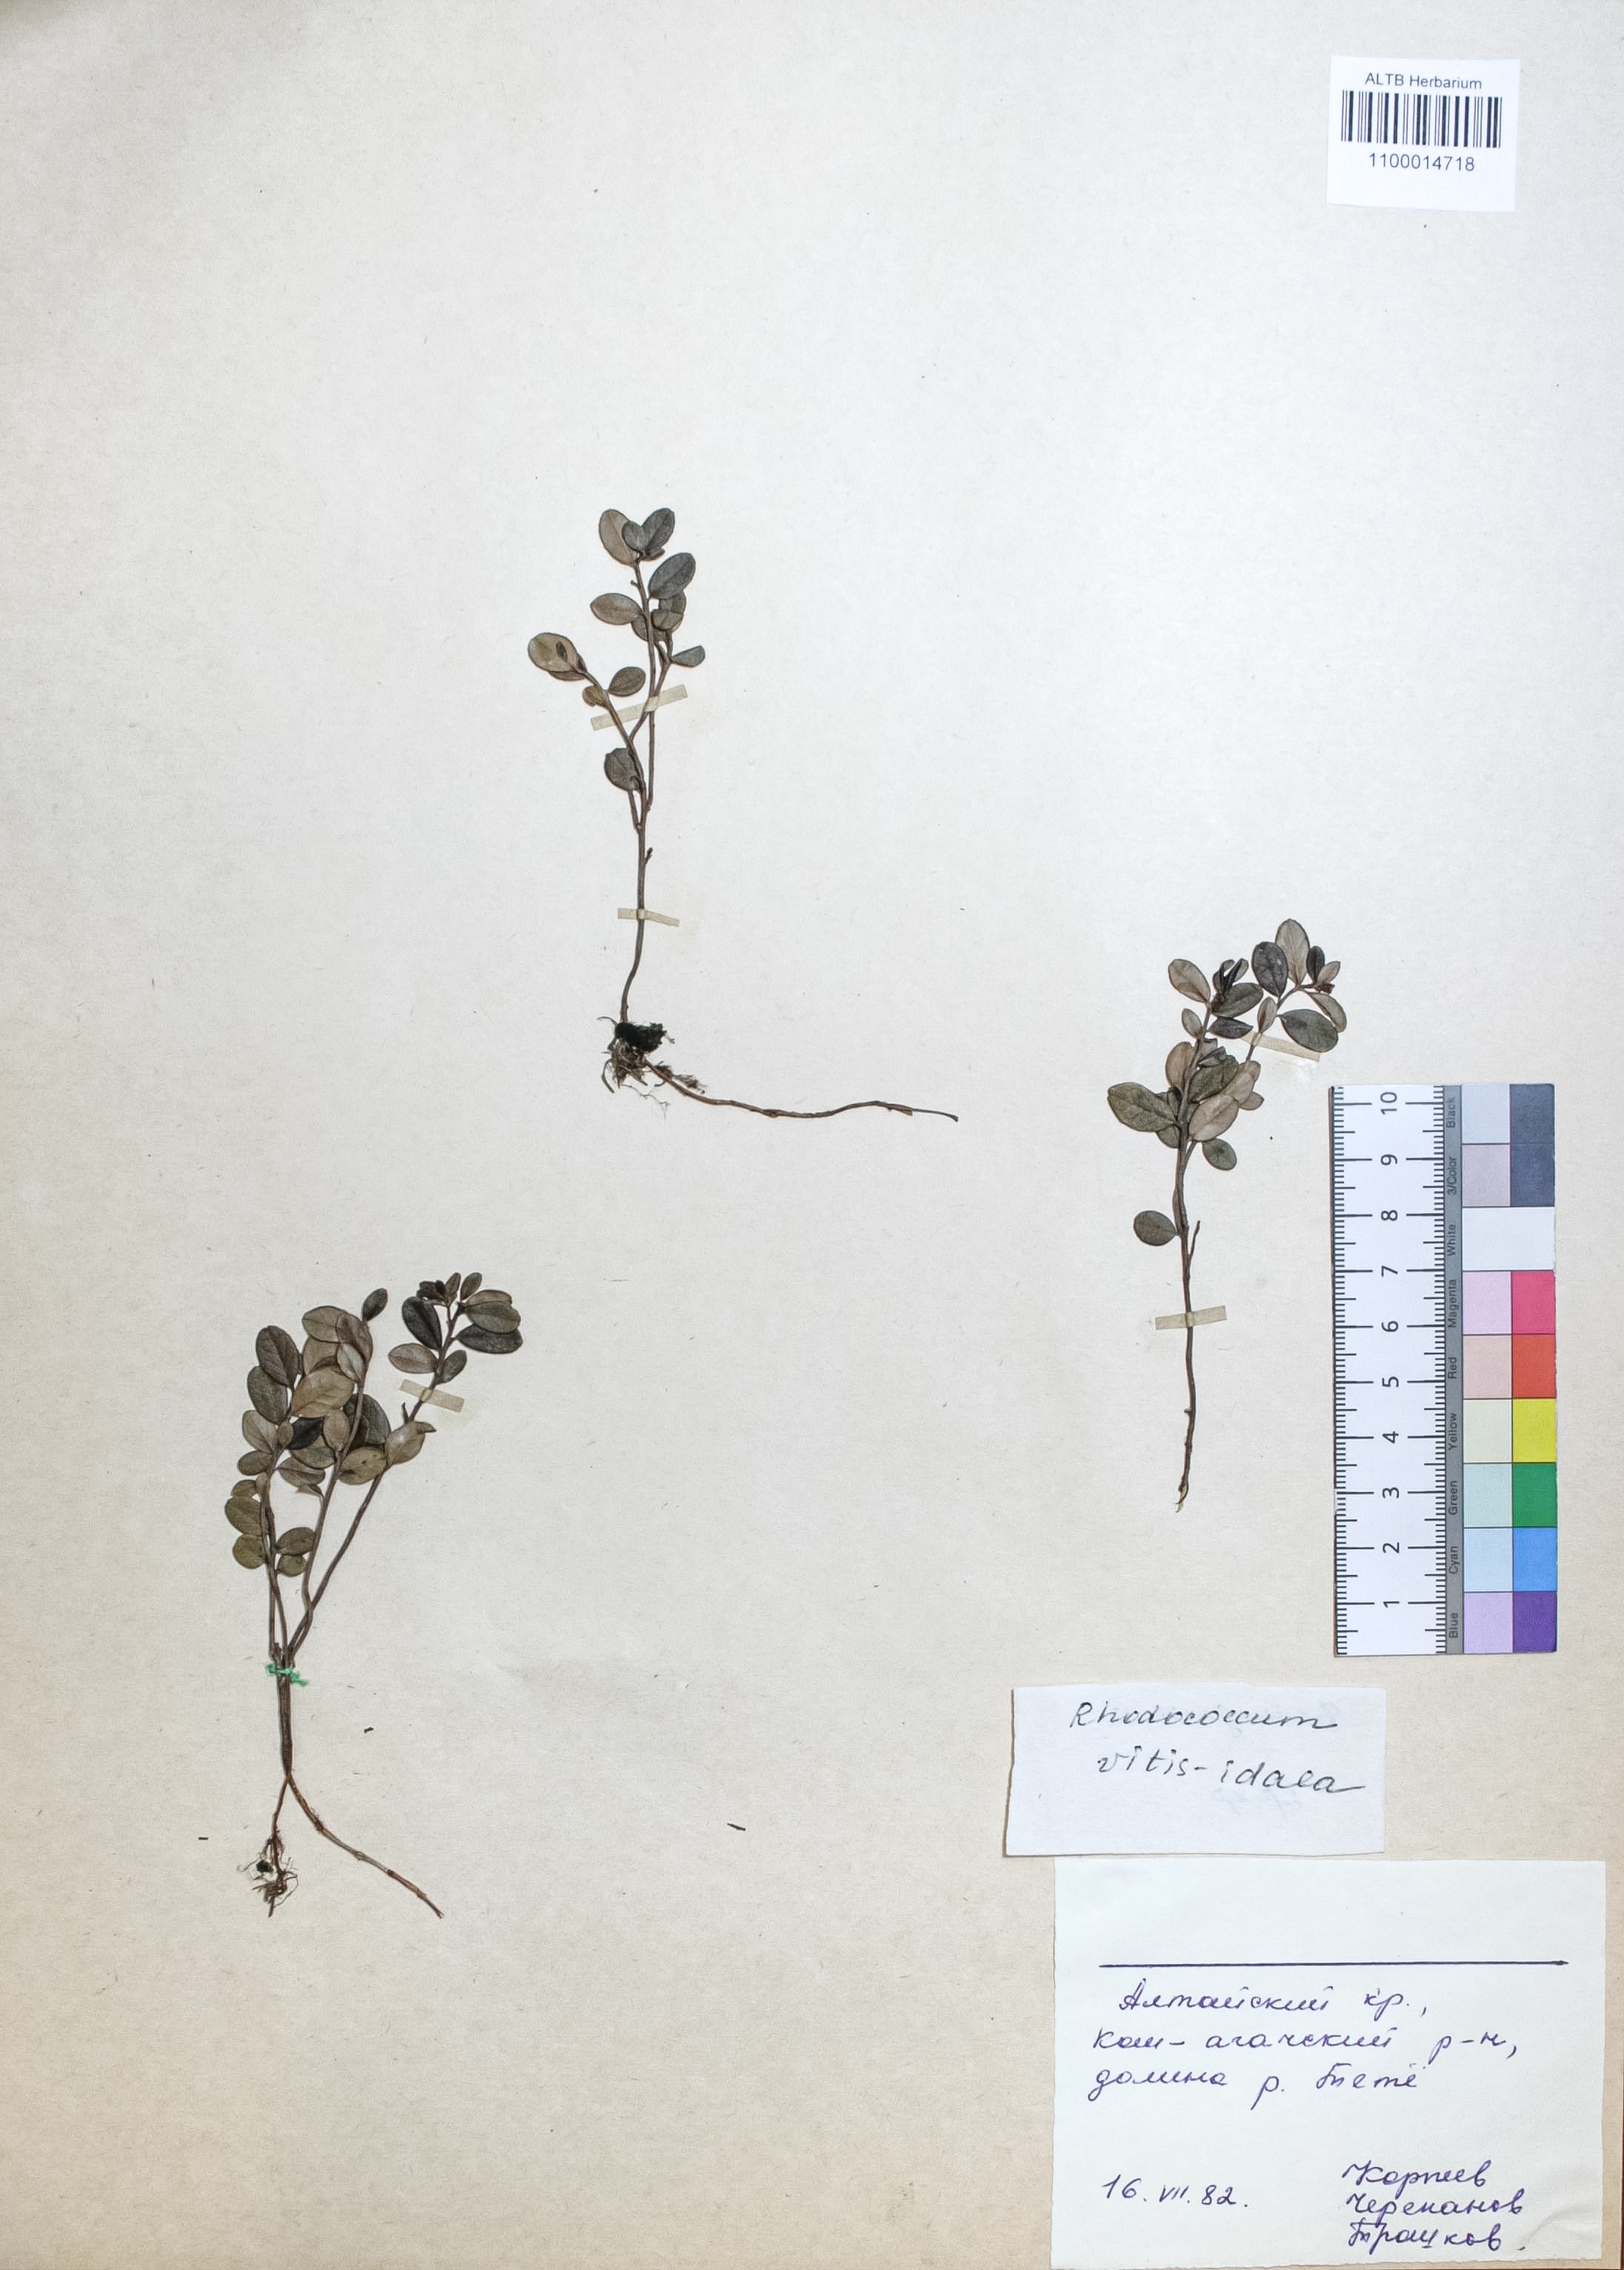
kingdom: Plantae
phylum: Tracheophyta
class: Magnoliopsida
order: Ericales
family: Ericaceae
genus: Vaccinium
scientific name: Vaccinium vitis-idaea
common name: Cowberry
